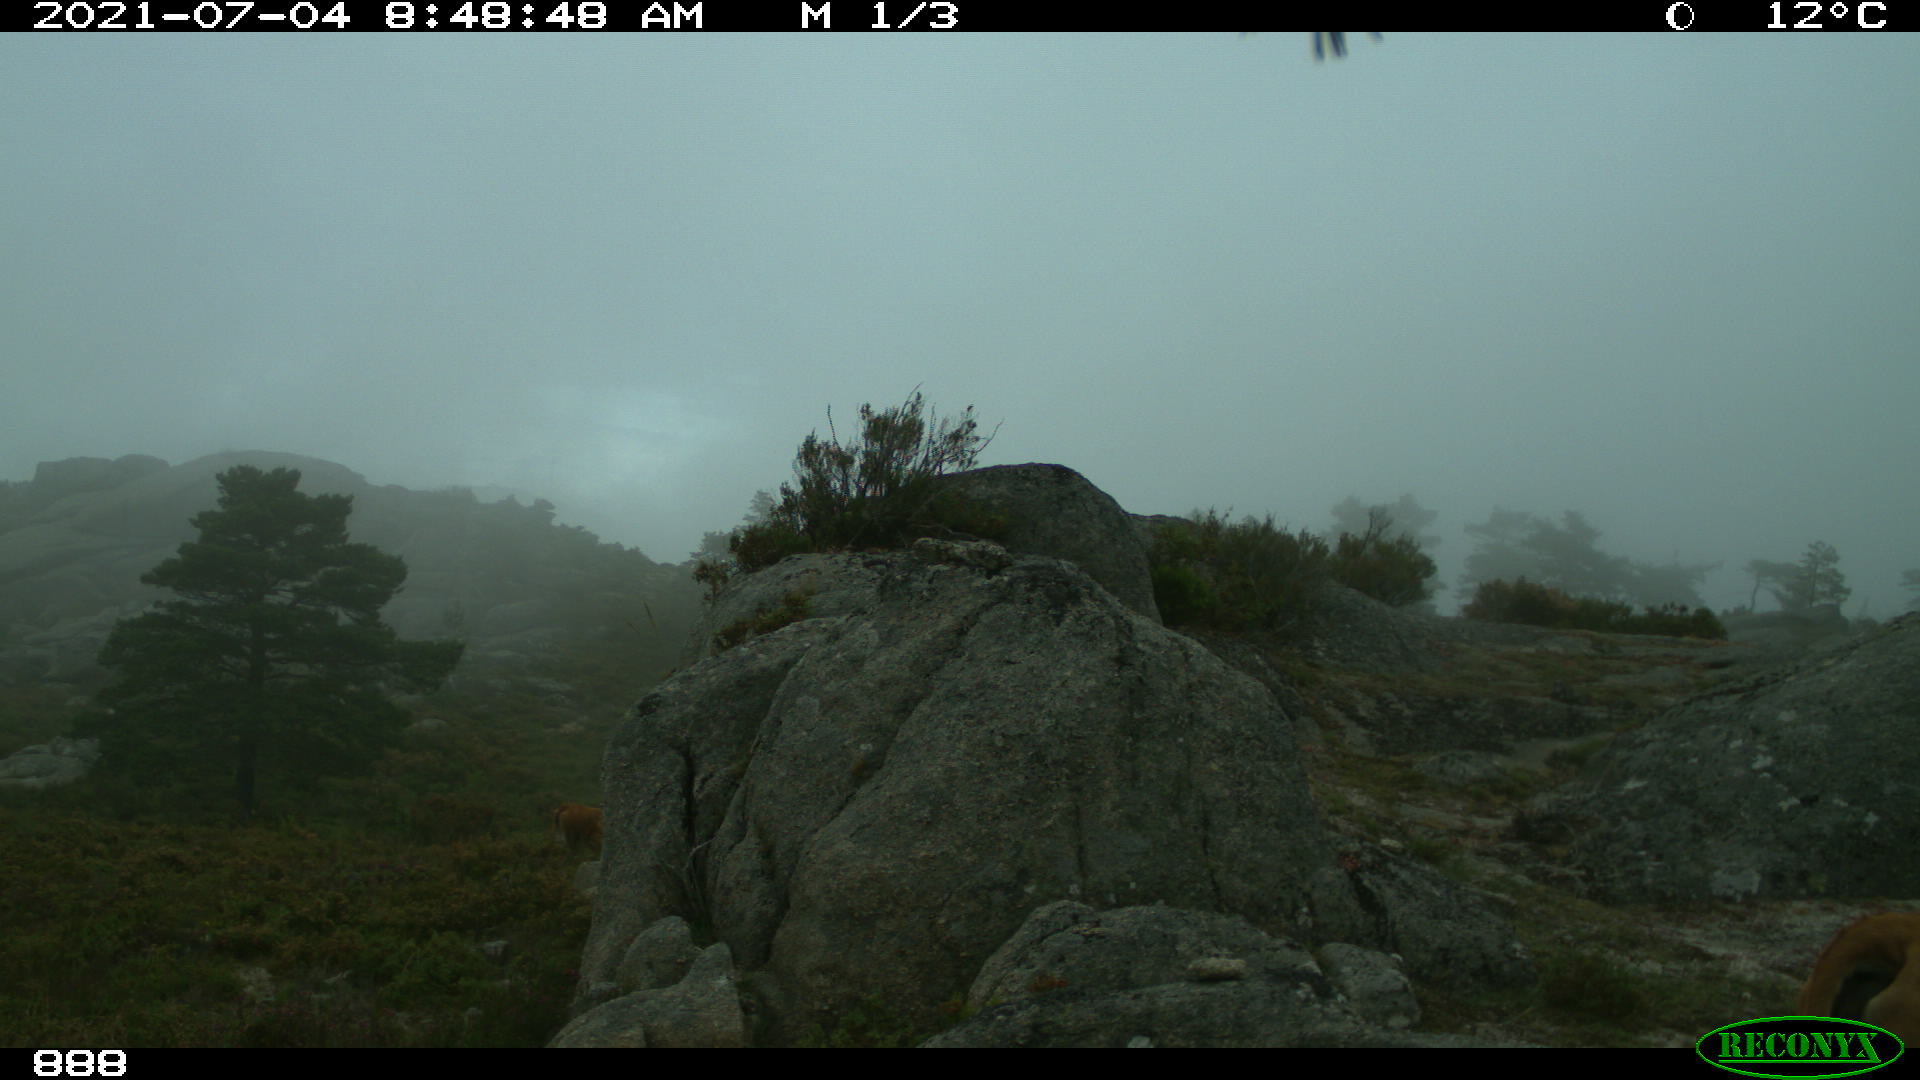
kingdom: Animalia
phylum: Chordata
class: Mammalia
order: Artiodactyla
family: Bovidae
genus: Bos
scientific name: Bos taurus
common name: Domesticated cattle
